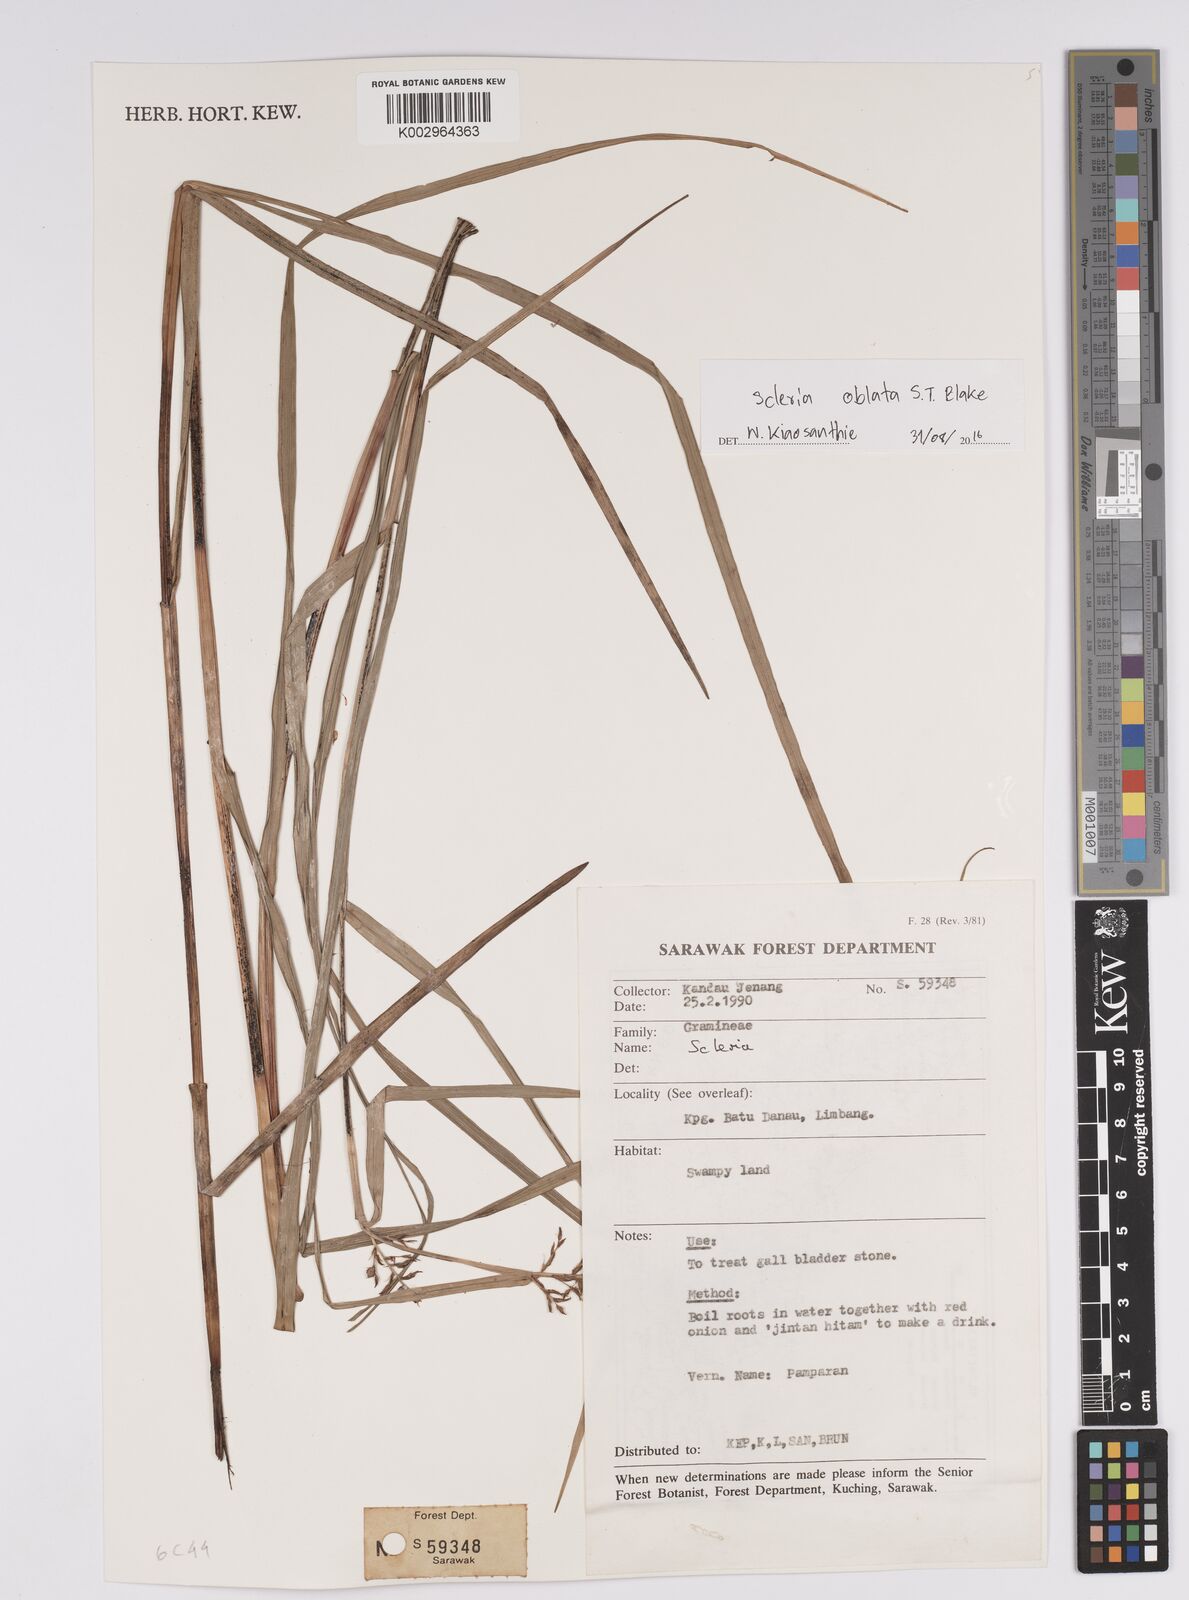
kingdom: Plantae
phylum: Tracheophyta
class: Liliopsida
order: Poales
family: Cyperaceae
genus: Scleria
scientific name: Scleria oblata
